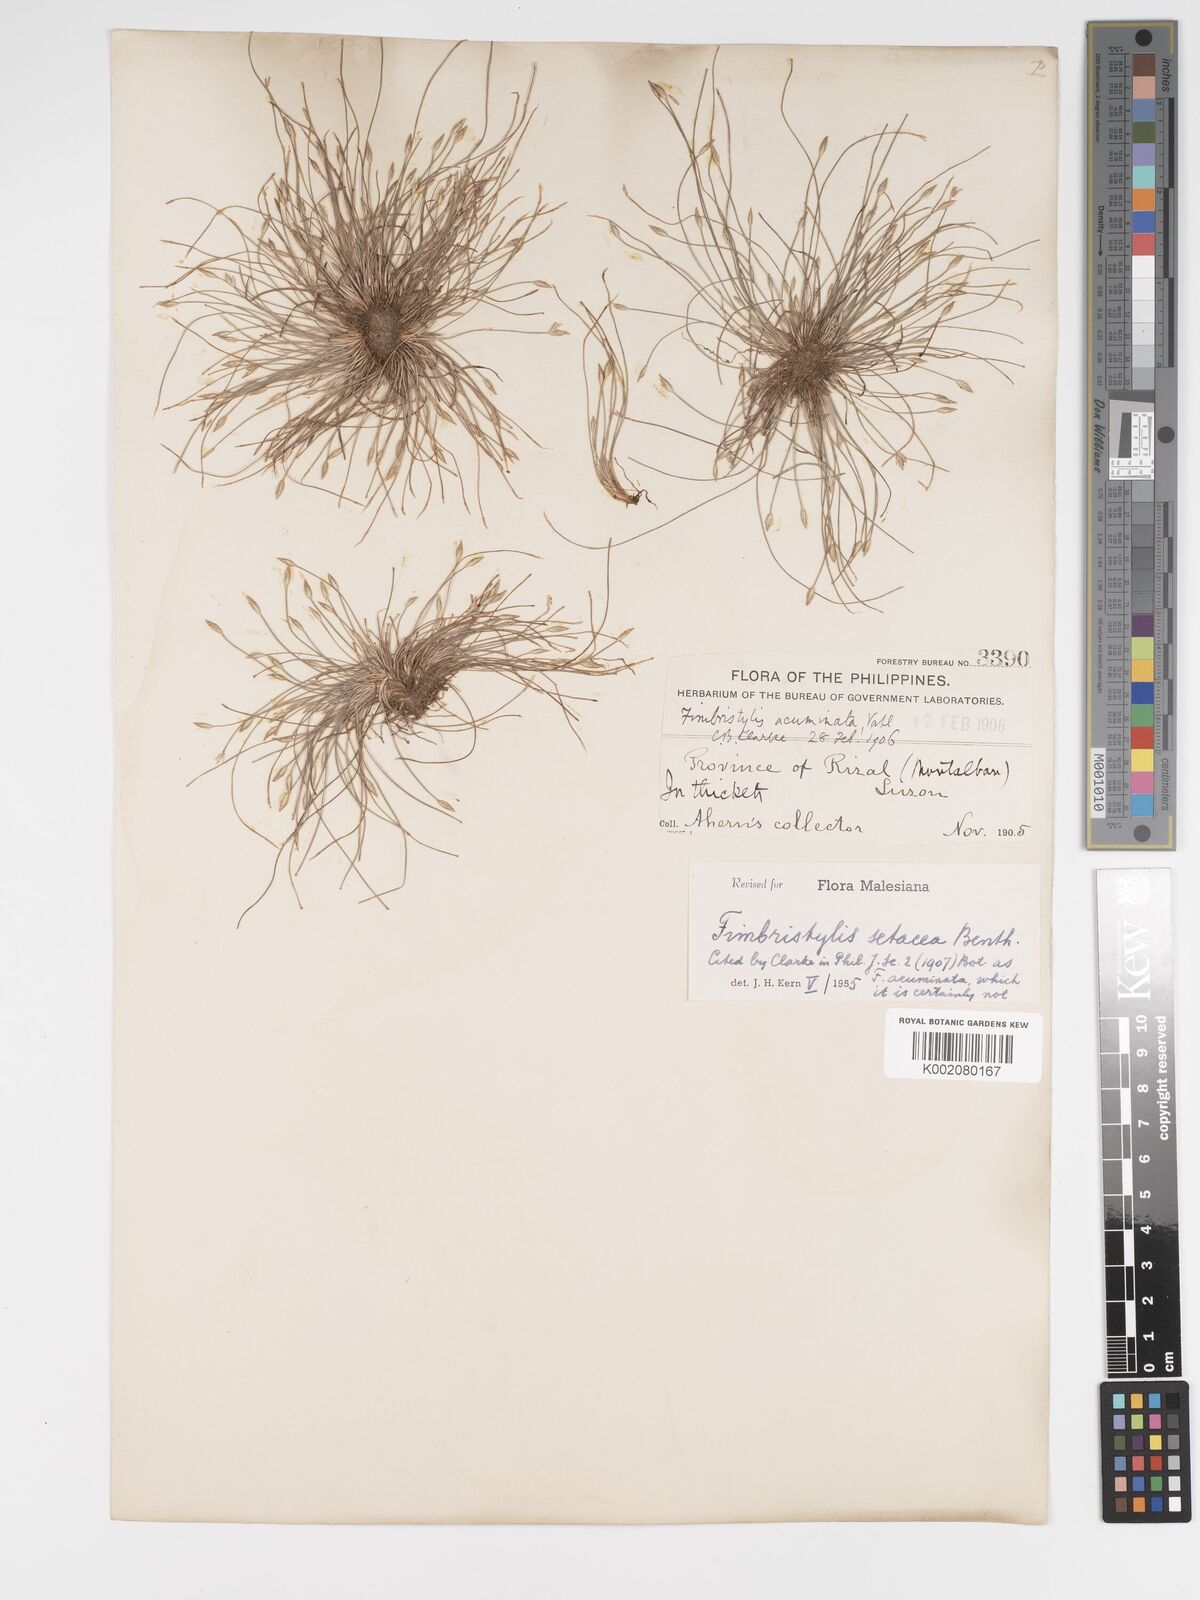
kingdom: Plantae
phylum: Tracheophyta
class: Liliopsida
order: Poales
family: Cyperaceae
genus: Fimbristylis
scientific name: Fimbristylis acicularis
